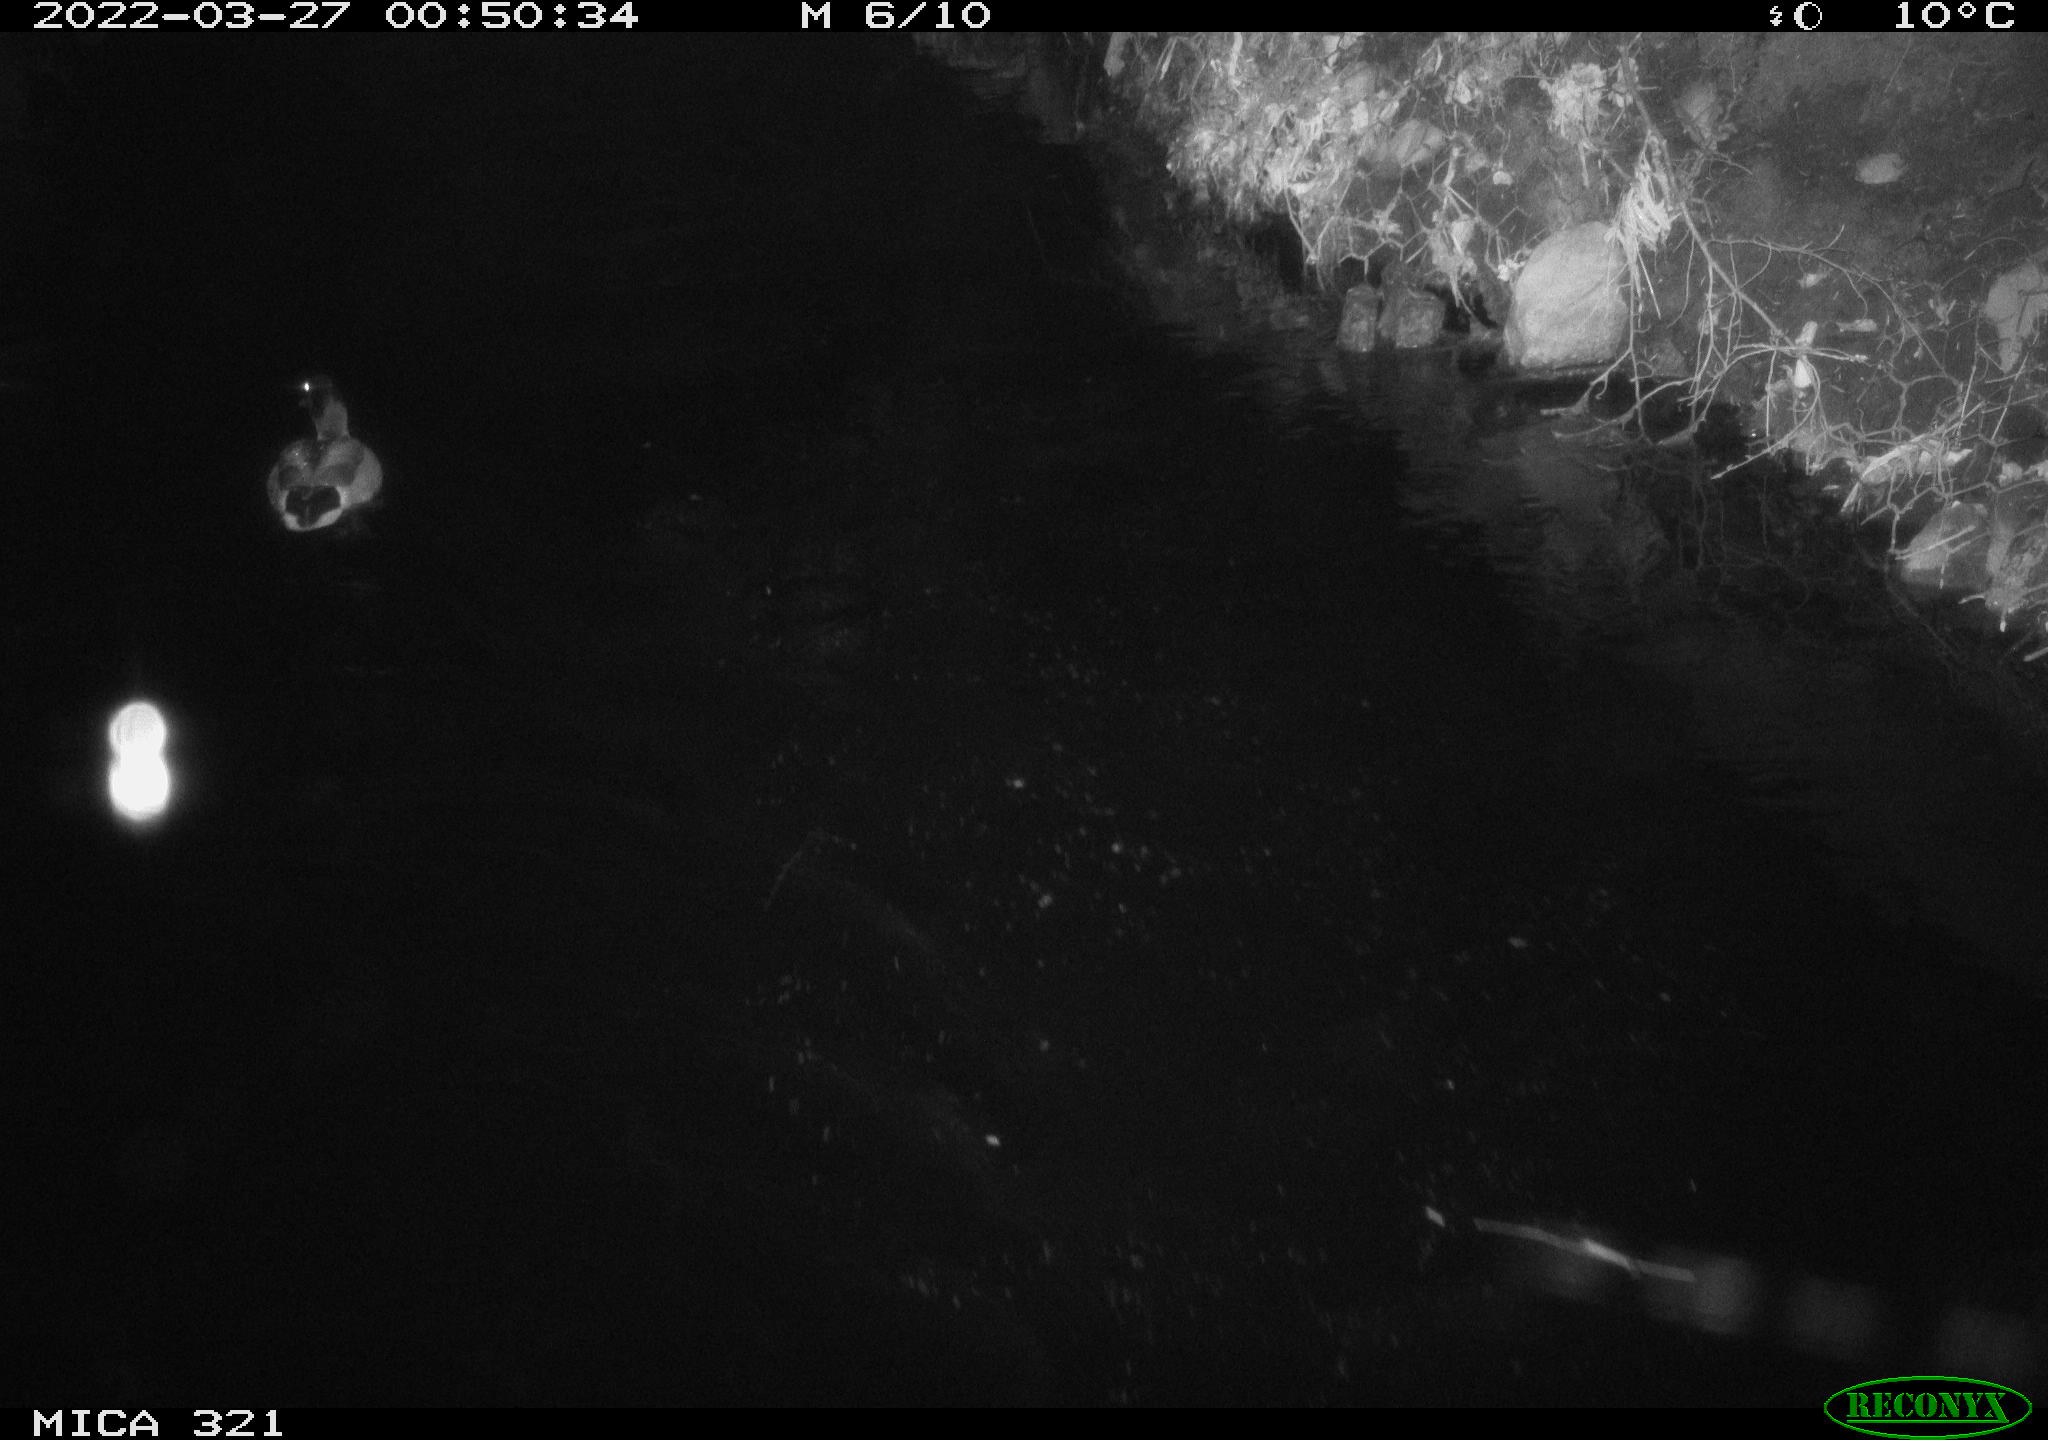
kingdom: Animalia
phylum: Chordata
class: Aves
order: Anseriformes
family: Anatidae
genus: Anas
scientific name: Anas platyrhynchos
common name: Mallard
